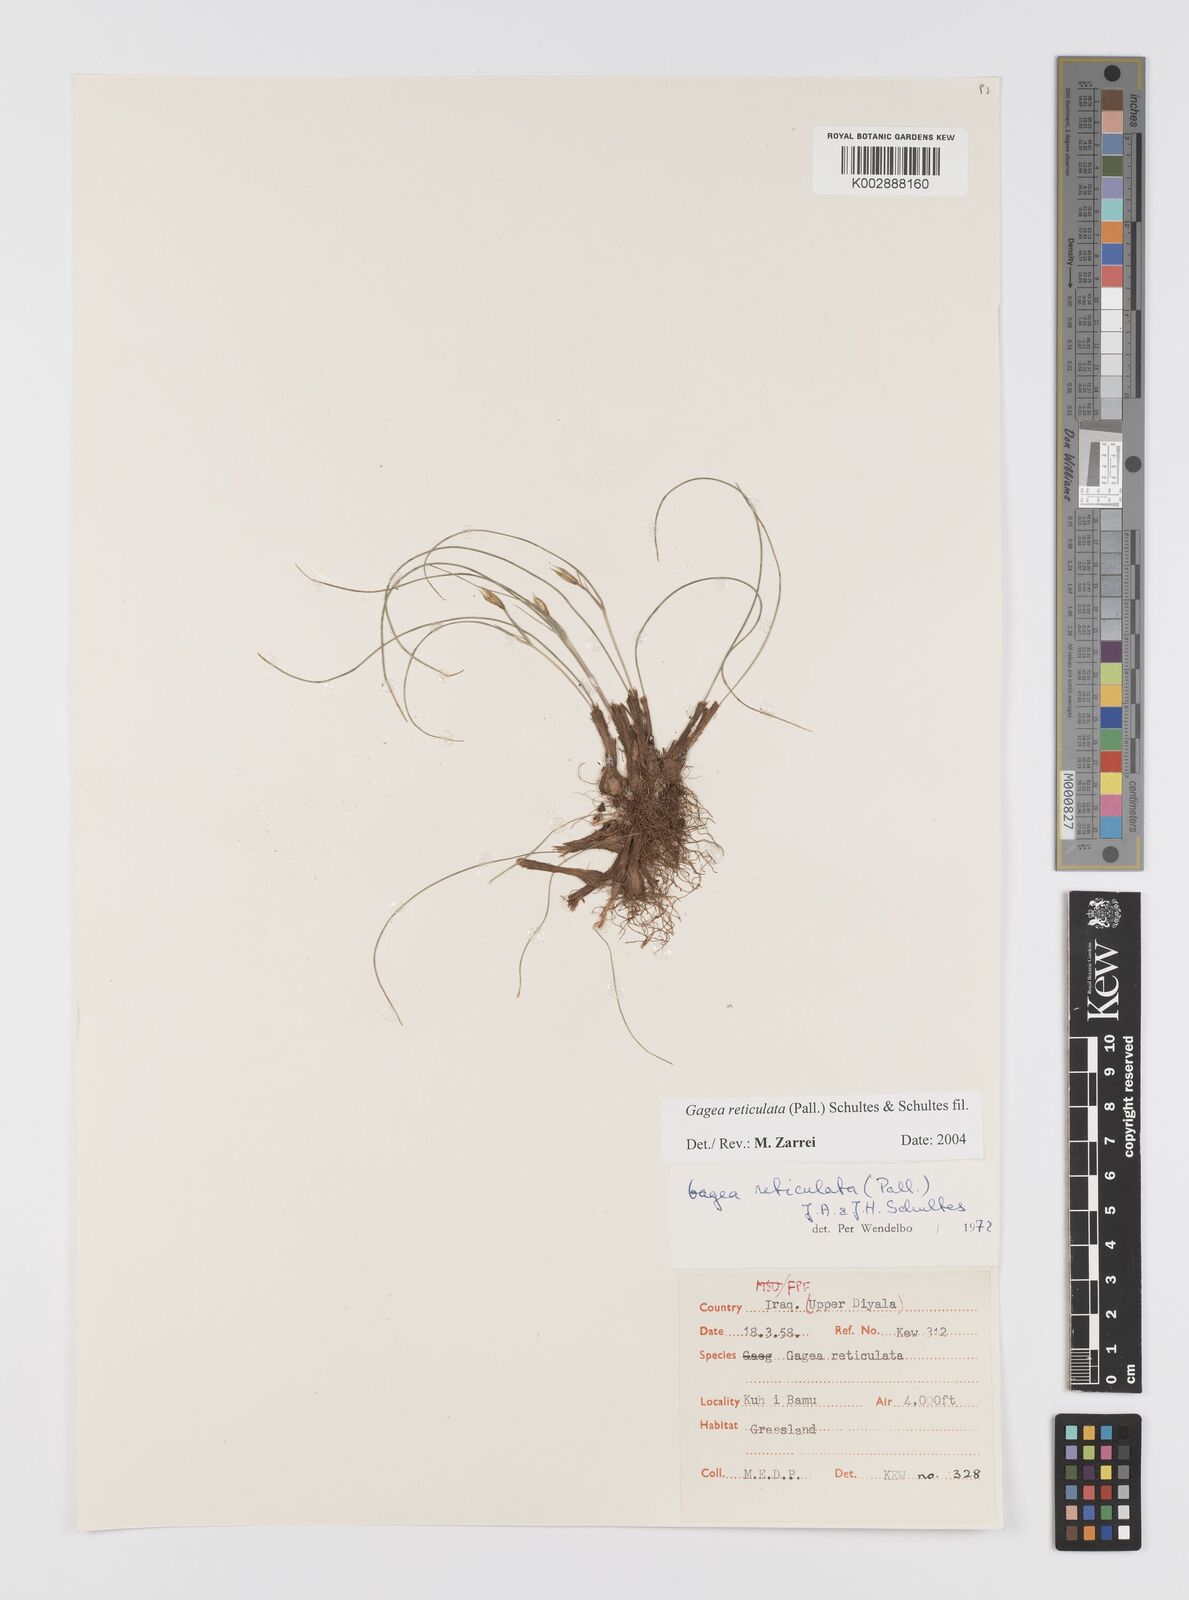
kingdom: Plantae
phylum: Tracheophyta
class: Liliopsida
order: Liliales
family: Liliaceae
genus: Gagea
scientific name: Gagea reticulata
